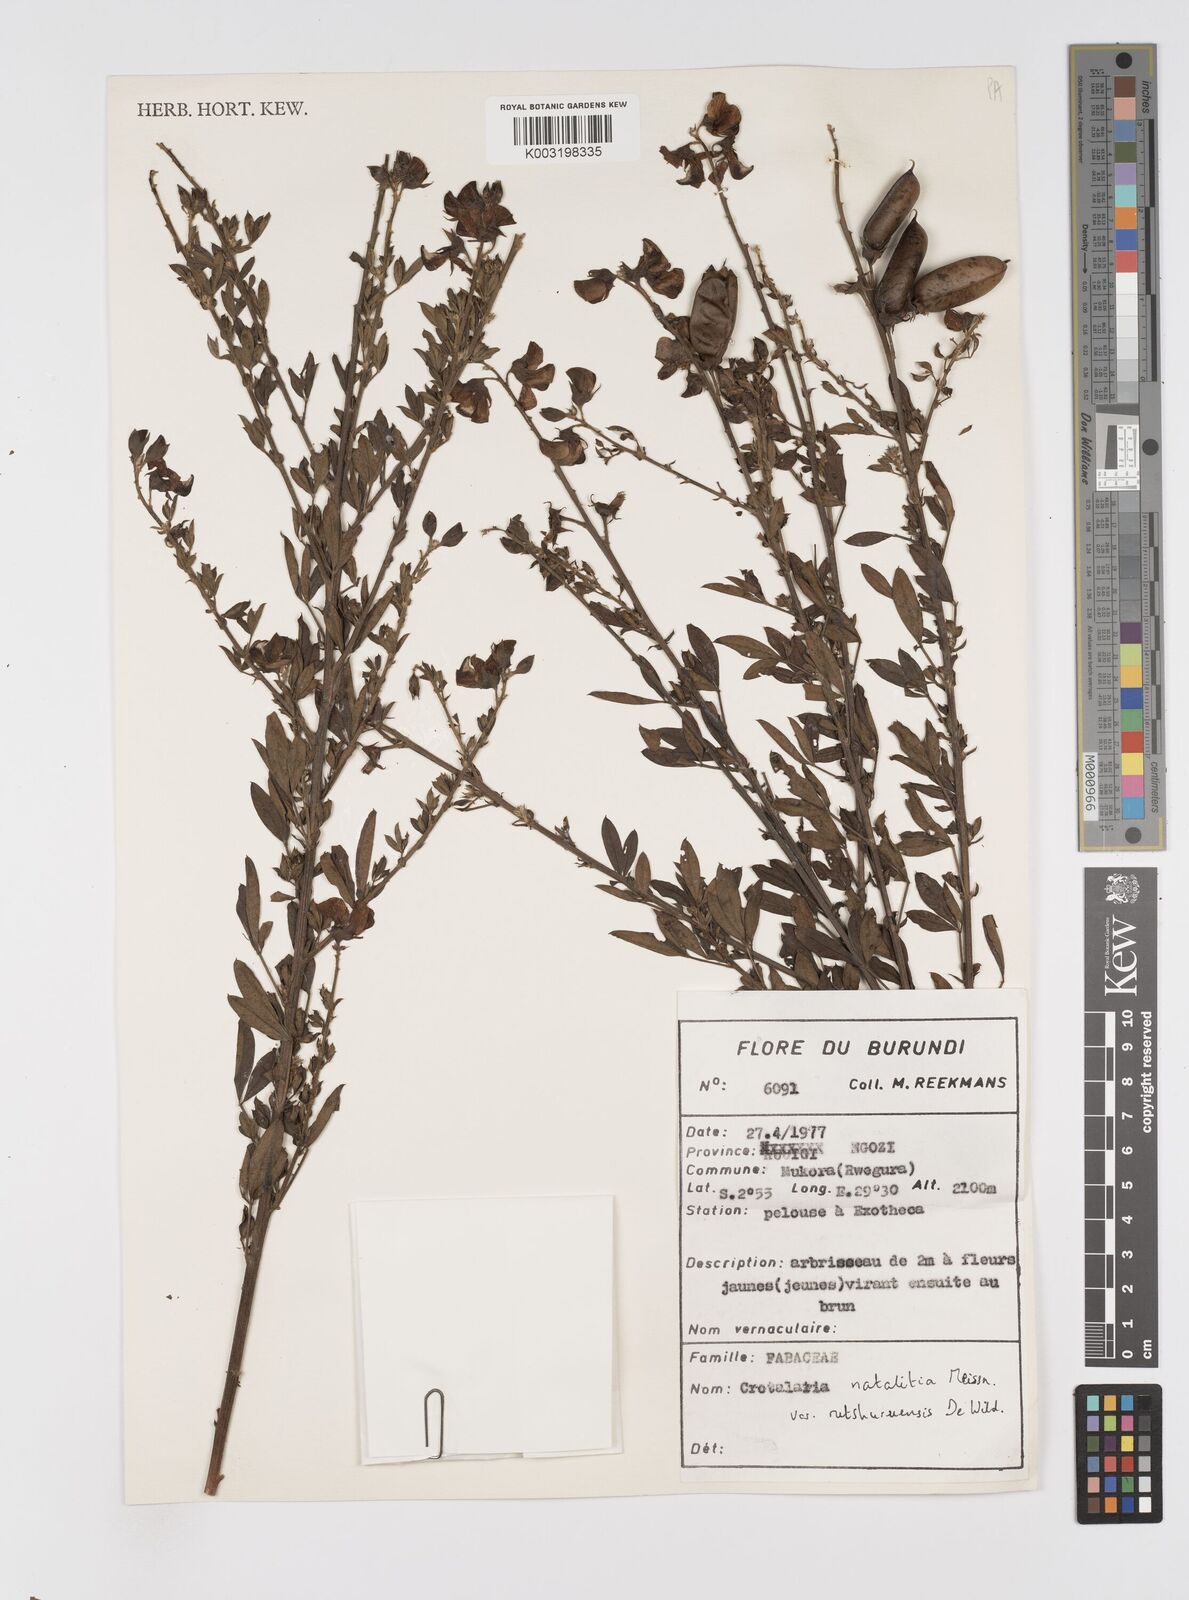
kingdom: Plantae
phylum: Tracheophyta
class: Magnoliopsida
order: Fabales
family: Fabaceae
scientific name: Fabaceae
